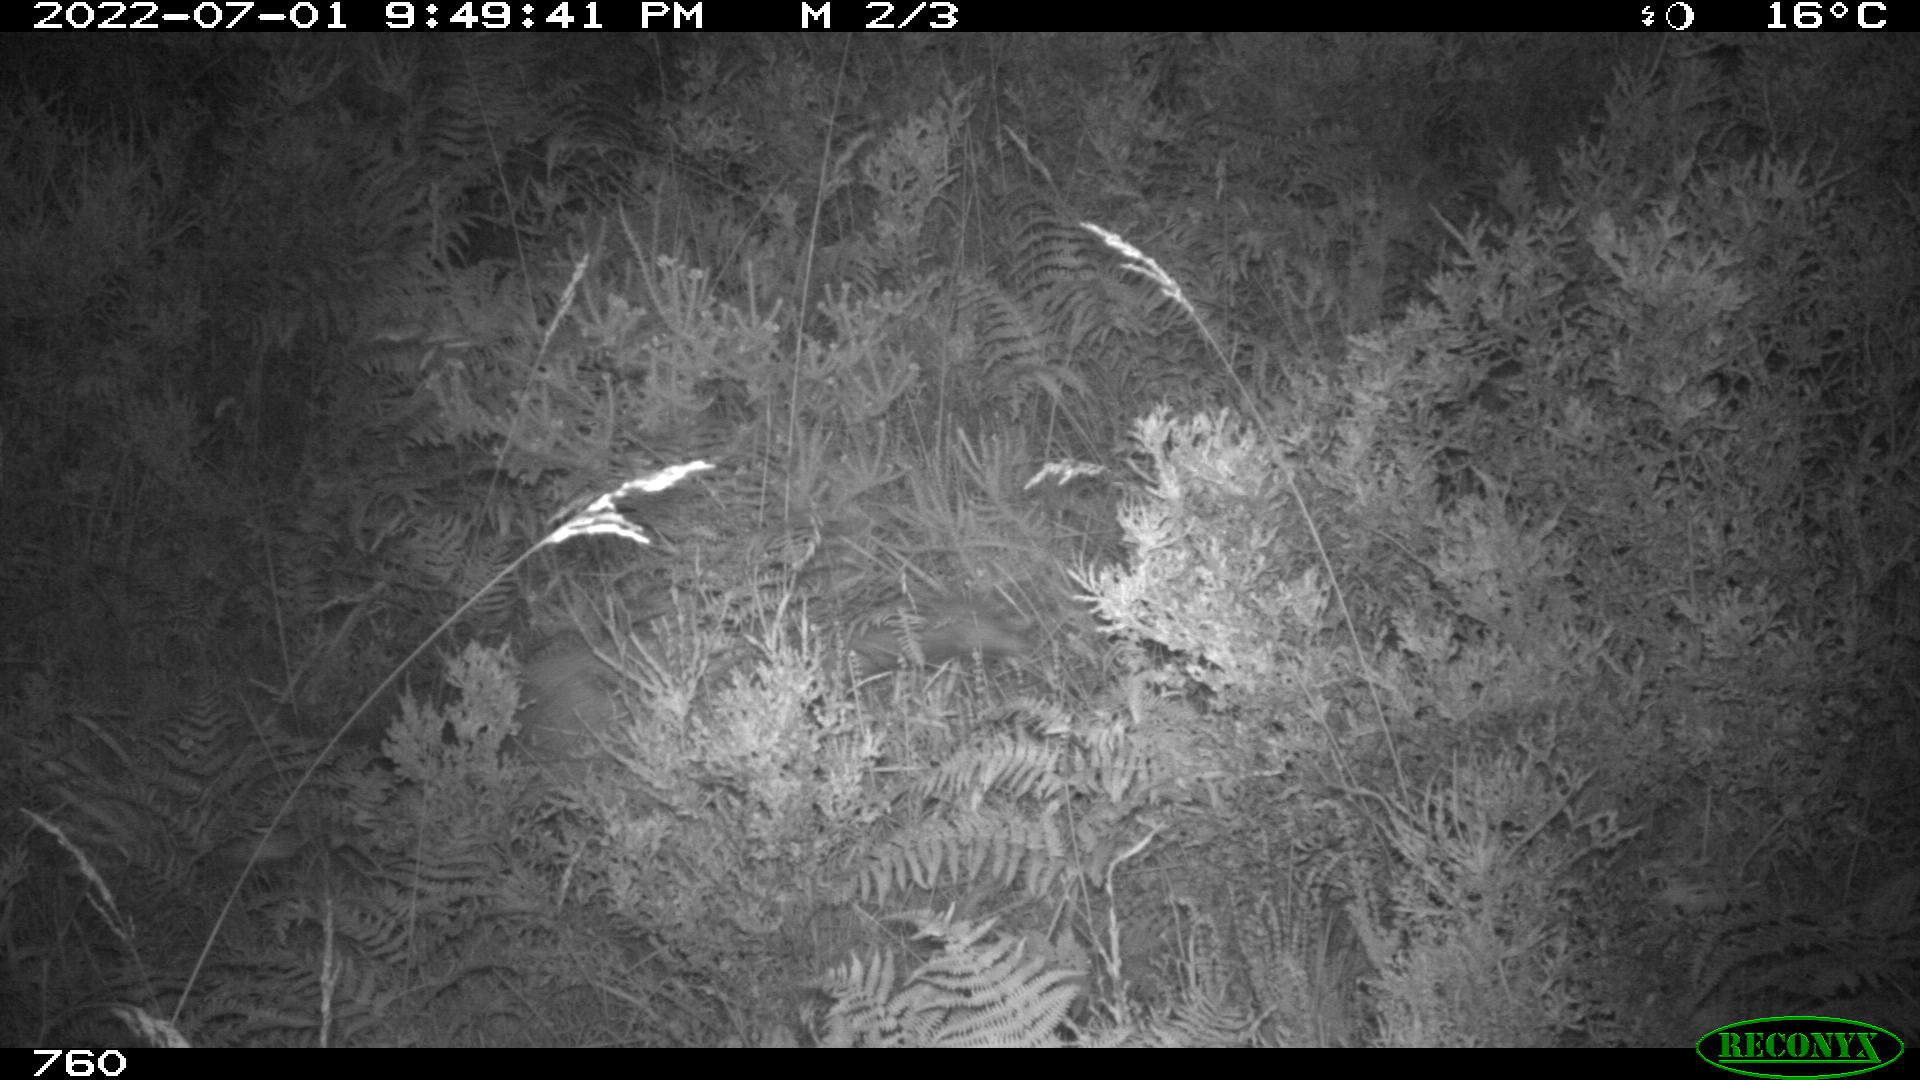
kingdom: Animalia
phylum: Chordata
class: Mammalia
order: Carnivora
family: Canidae
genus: Vulpes
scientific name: Vulpes vulpes
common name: Red fox
